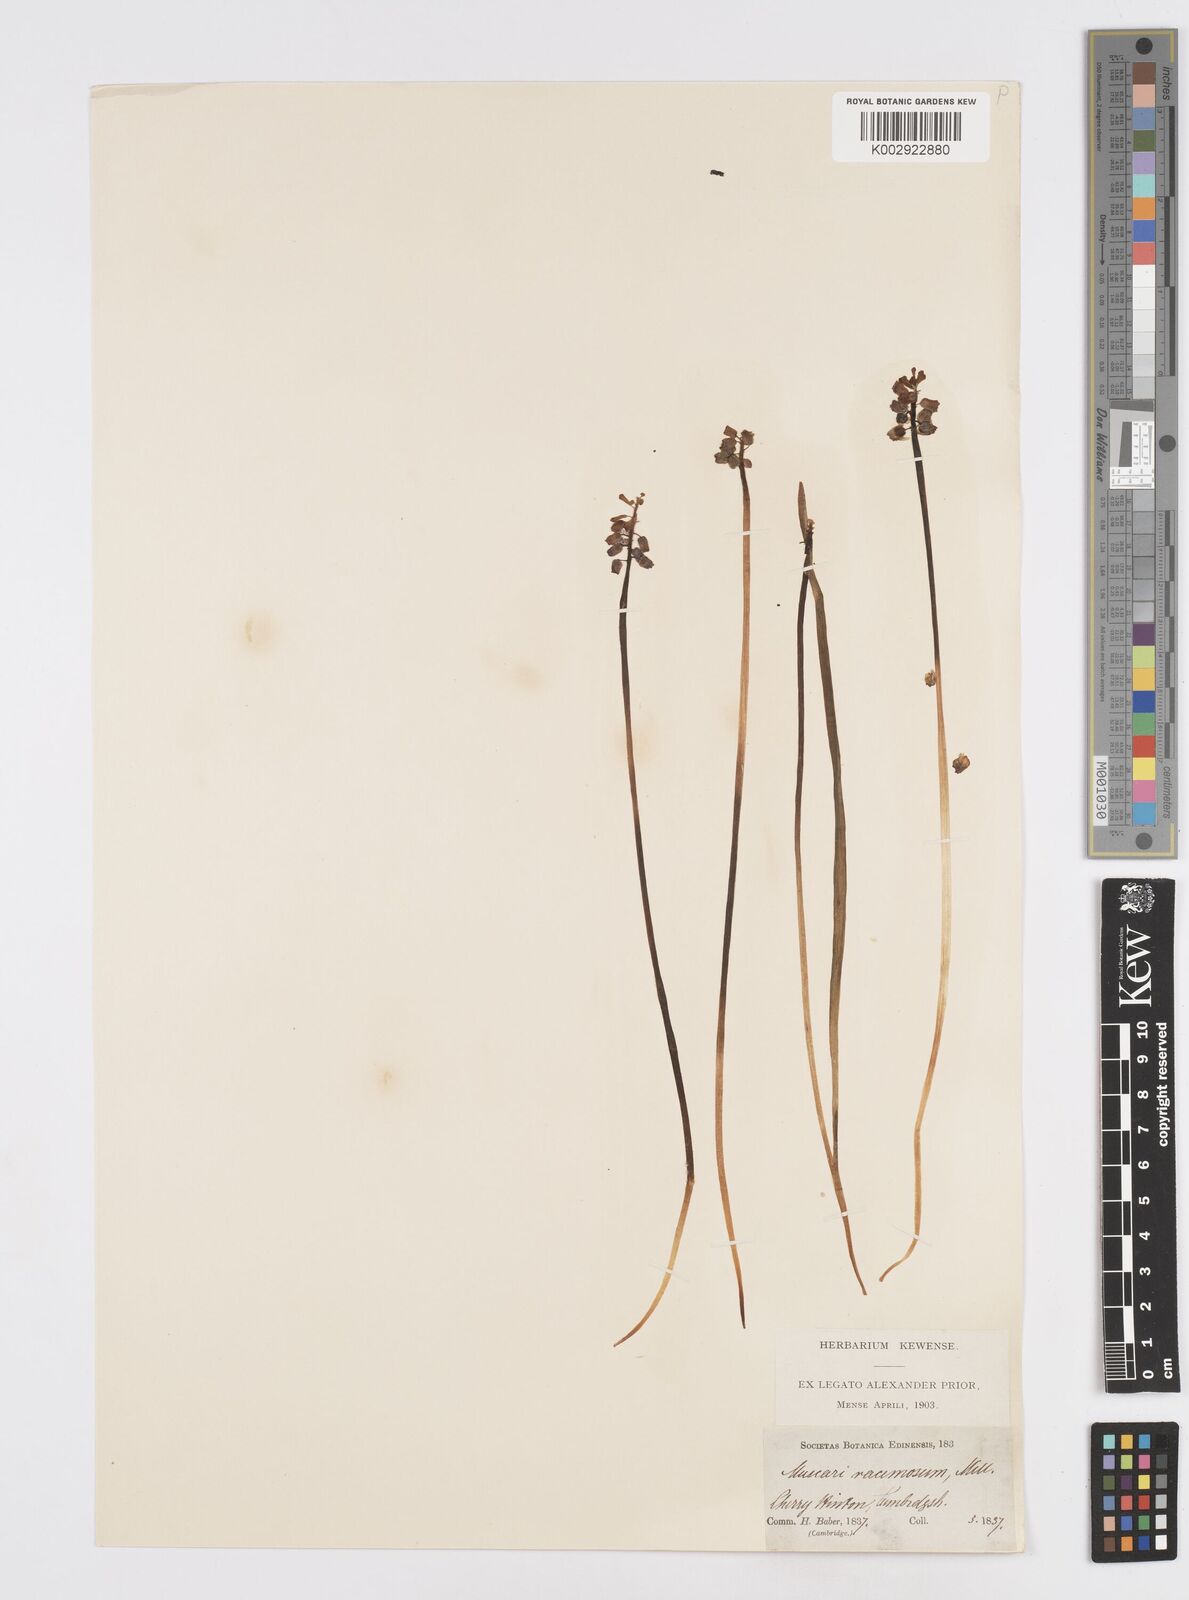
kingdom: Plantae
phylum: Tracheophyta
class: Liliopsida
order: Asparagales
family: Asparagaceae
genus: Muscarimia
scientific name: Muscarimia muscari
